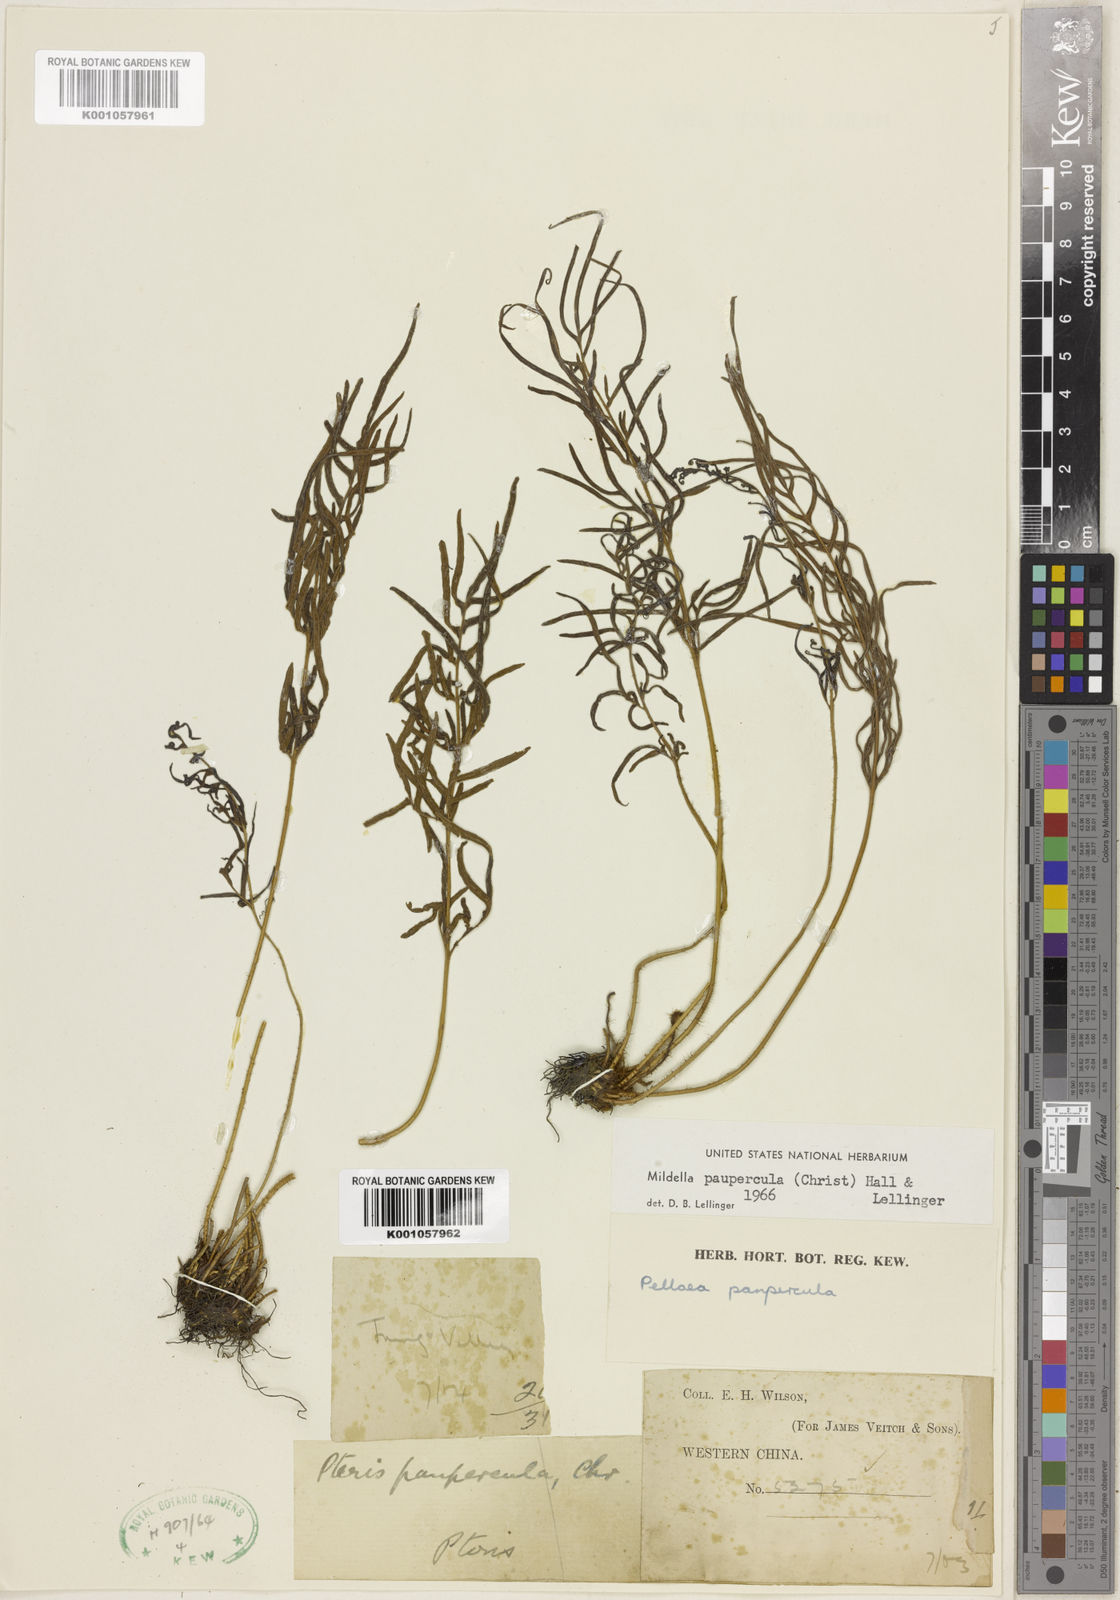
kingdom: Plantae
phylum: Tracheophyta
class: Polypodiopsida
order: Polypodiales
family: Pteridaceae
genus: Oeosporangium
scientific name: Oeosporangium pauperculum
